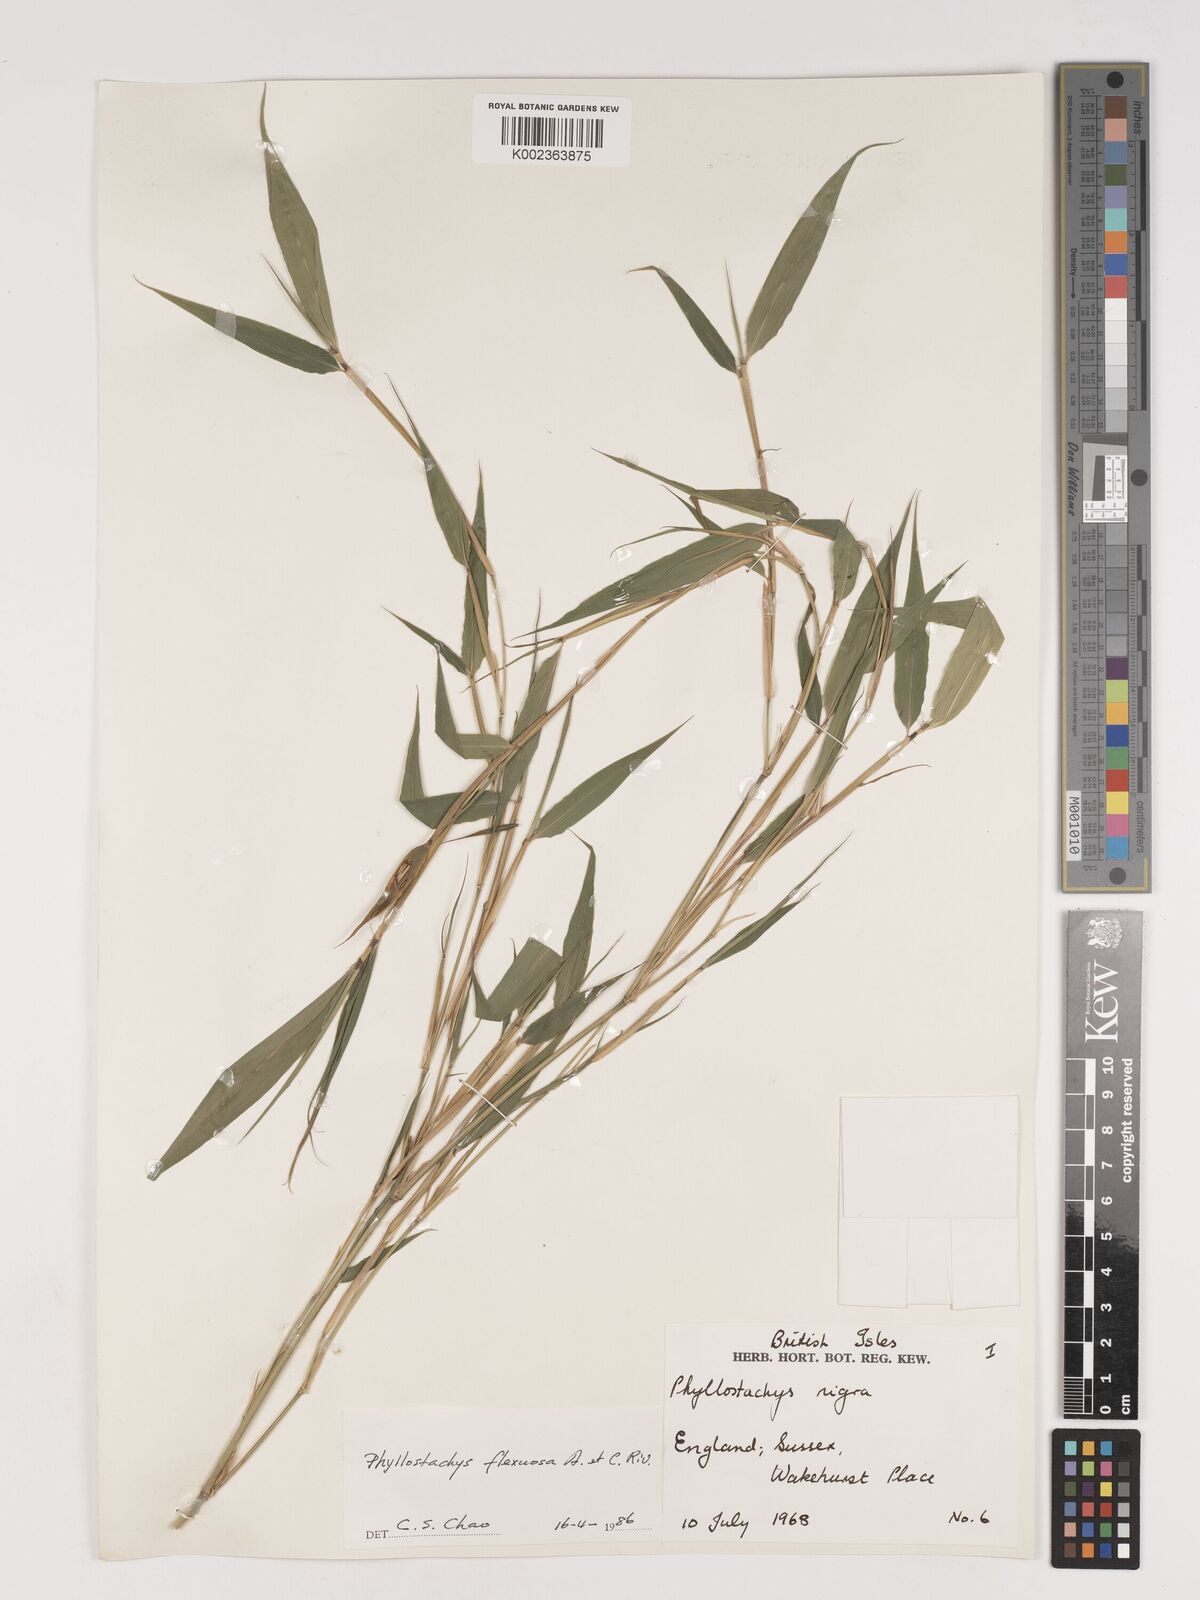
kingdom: Plantae
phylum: Tracheophyta
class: Liliopsida
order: Poales
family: Poaceae
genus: Phyllostachys
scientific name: Phyllostachys flexuosa
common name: Drooping timber bamboo
